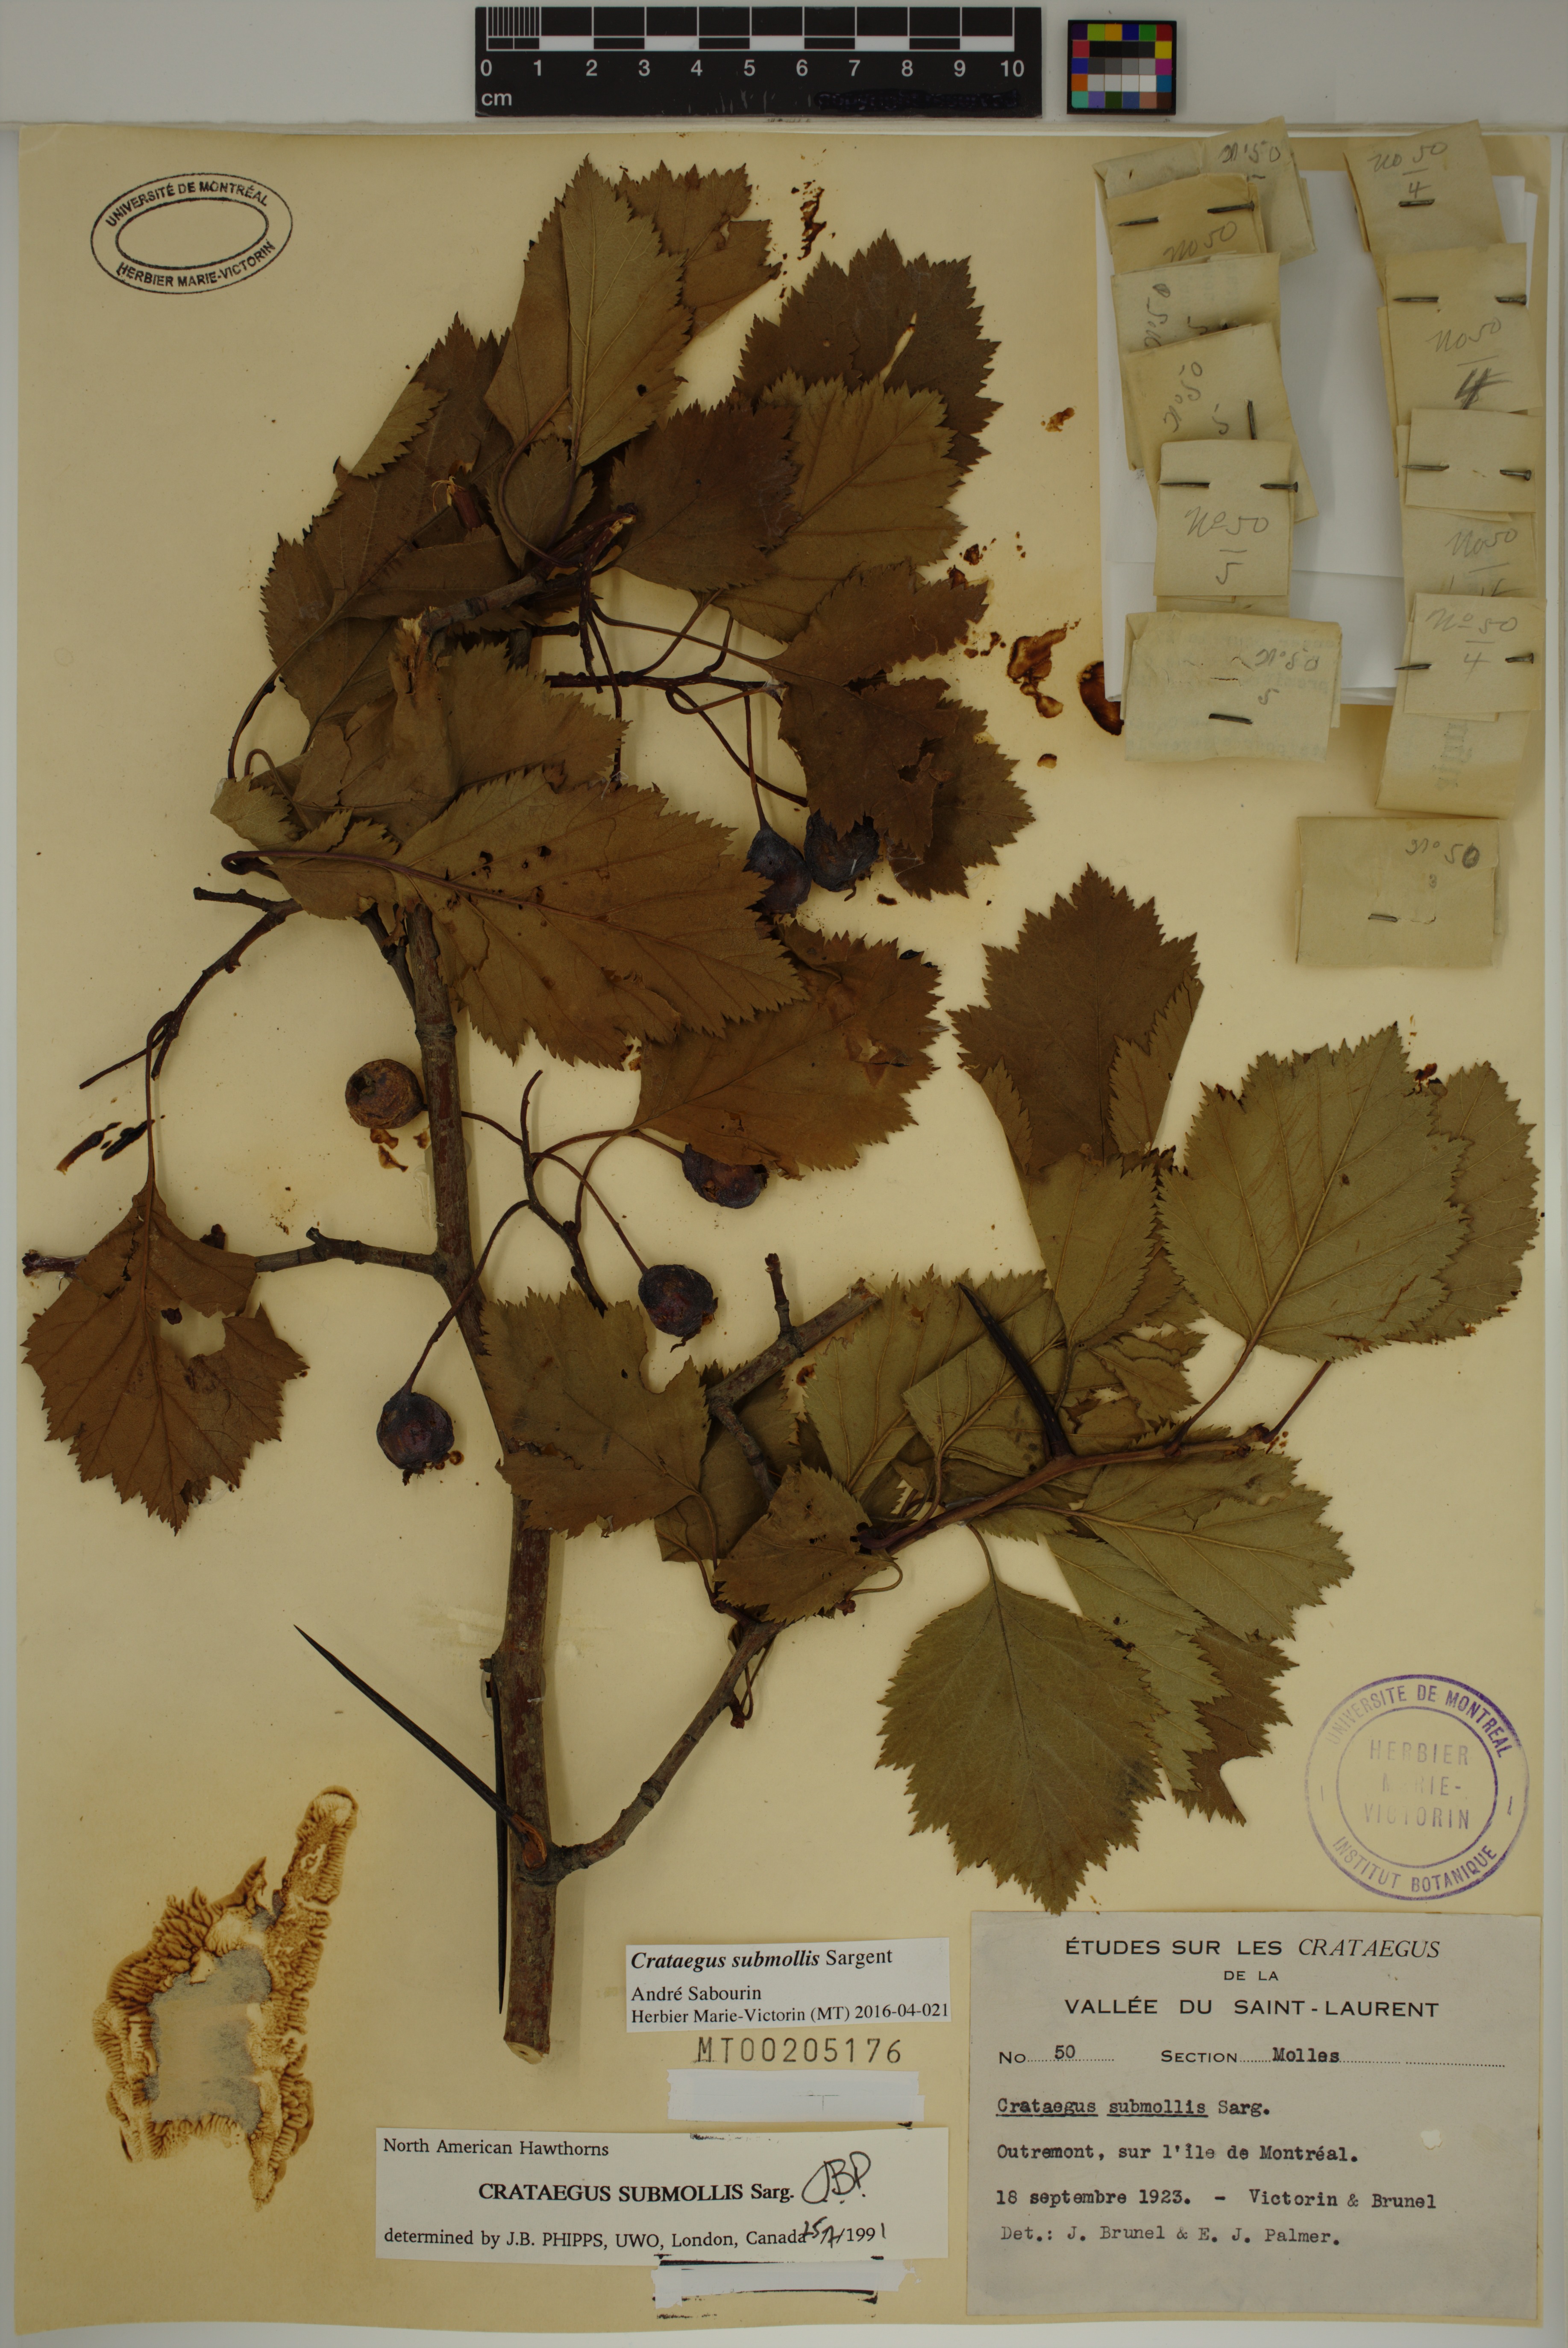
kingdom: Plantae
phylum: Tracheophyta
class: Magnoliopsida
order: Rosales
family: Rosaceae
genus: Crataegus
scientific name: Crataegus submollis
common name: Hairy cockspurthorn
